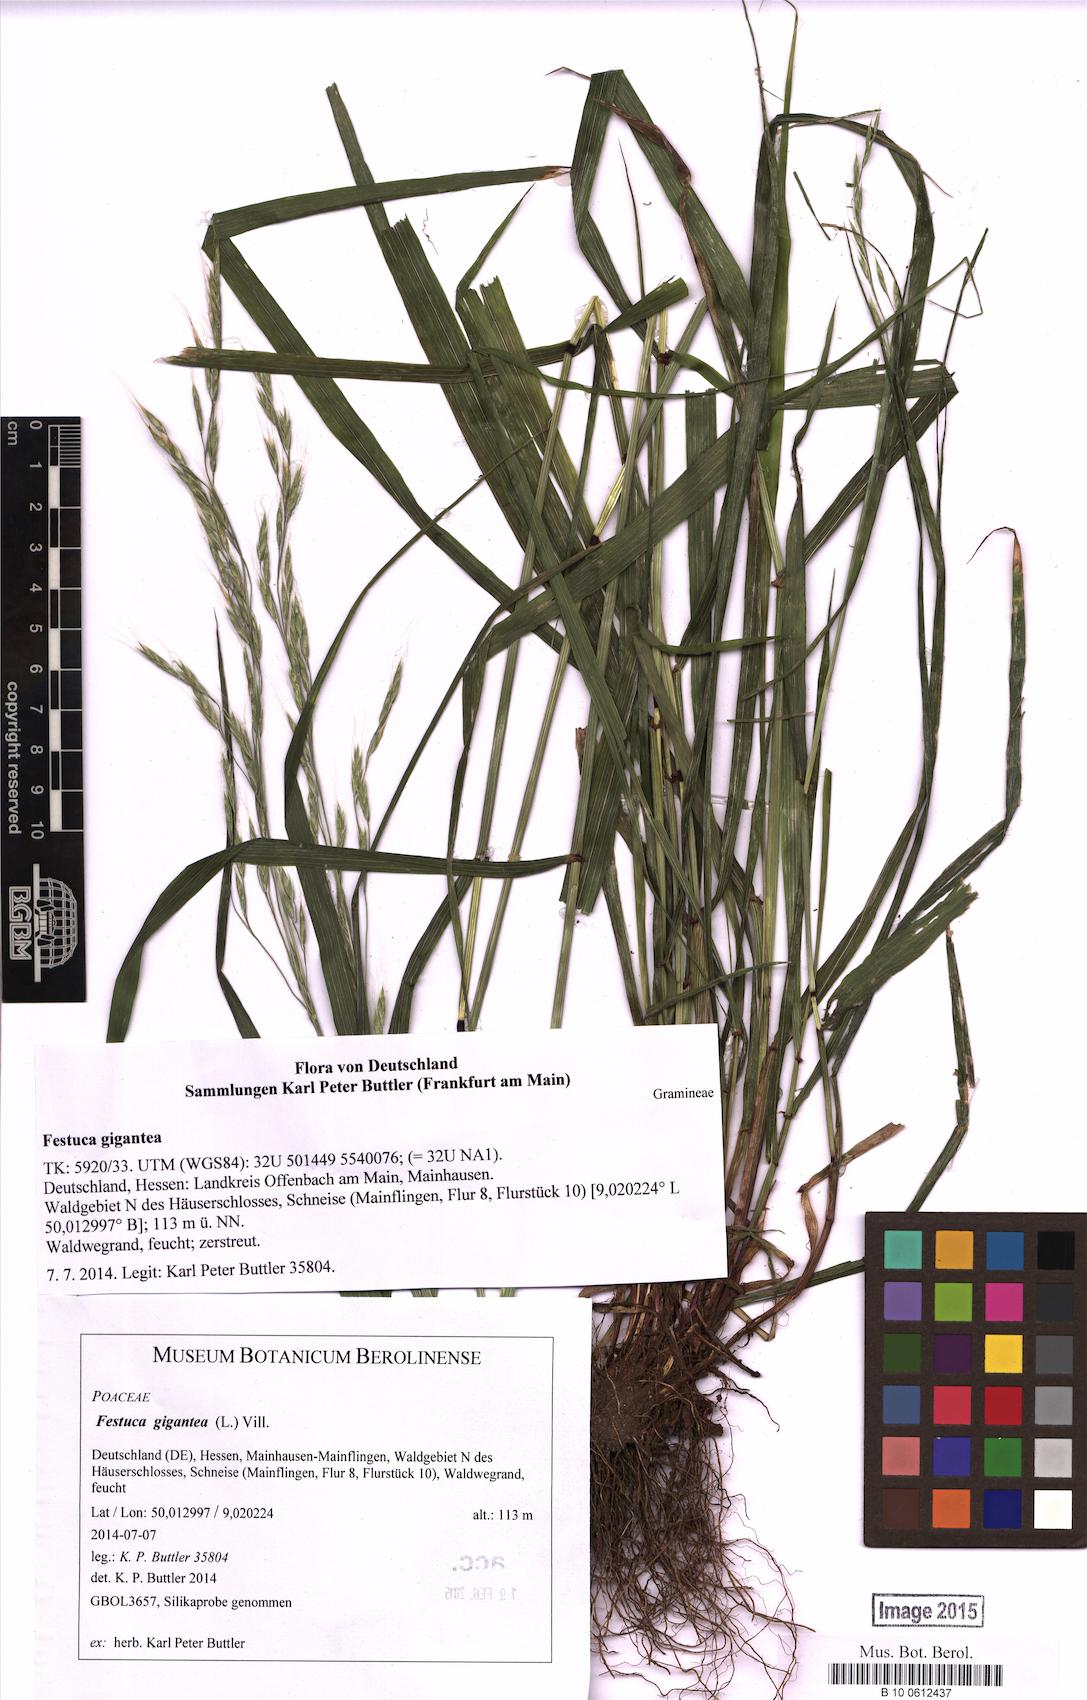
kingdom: Plantae
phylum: Tracheophyta
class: Liliopsida
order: Poales
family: Poaceae
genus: Lolium
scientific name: Lolium giganteum
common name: Giant fescue
